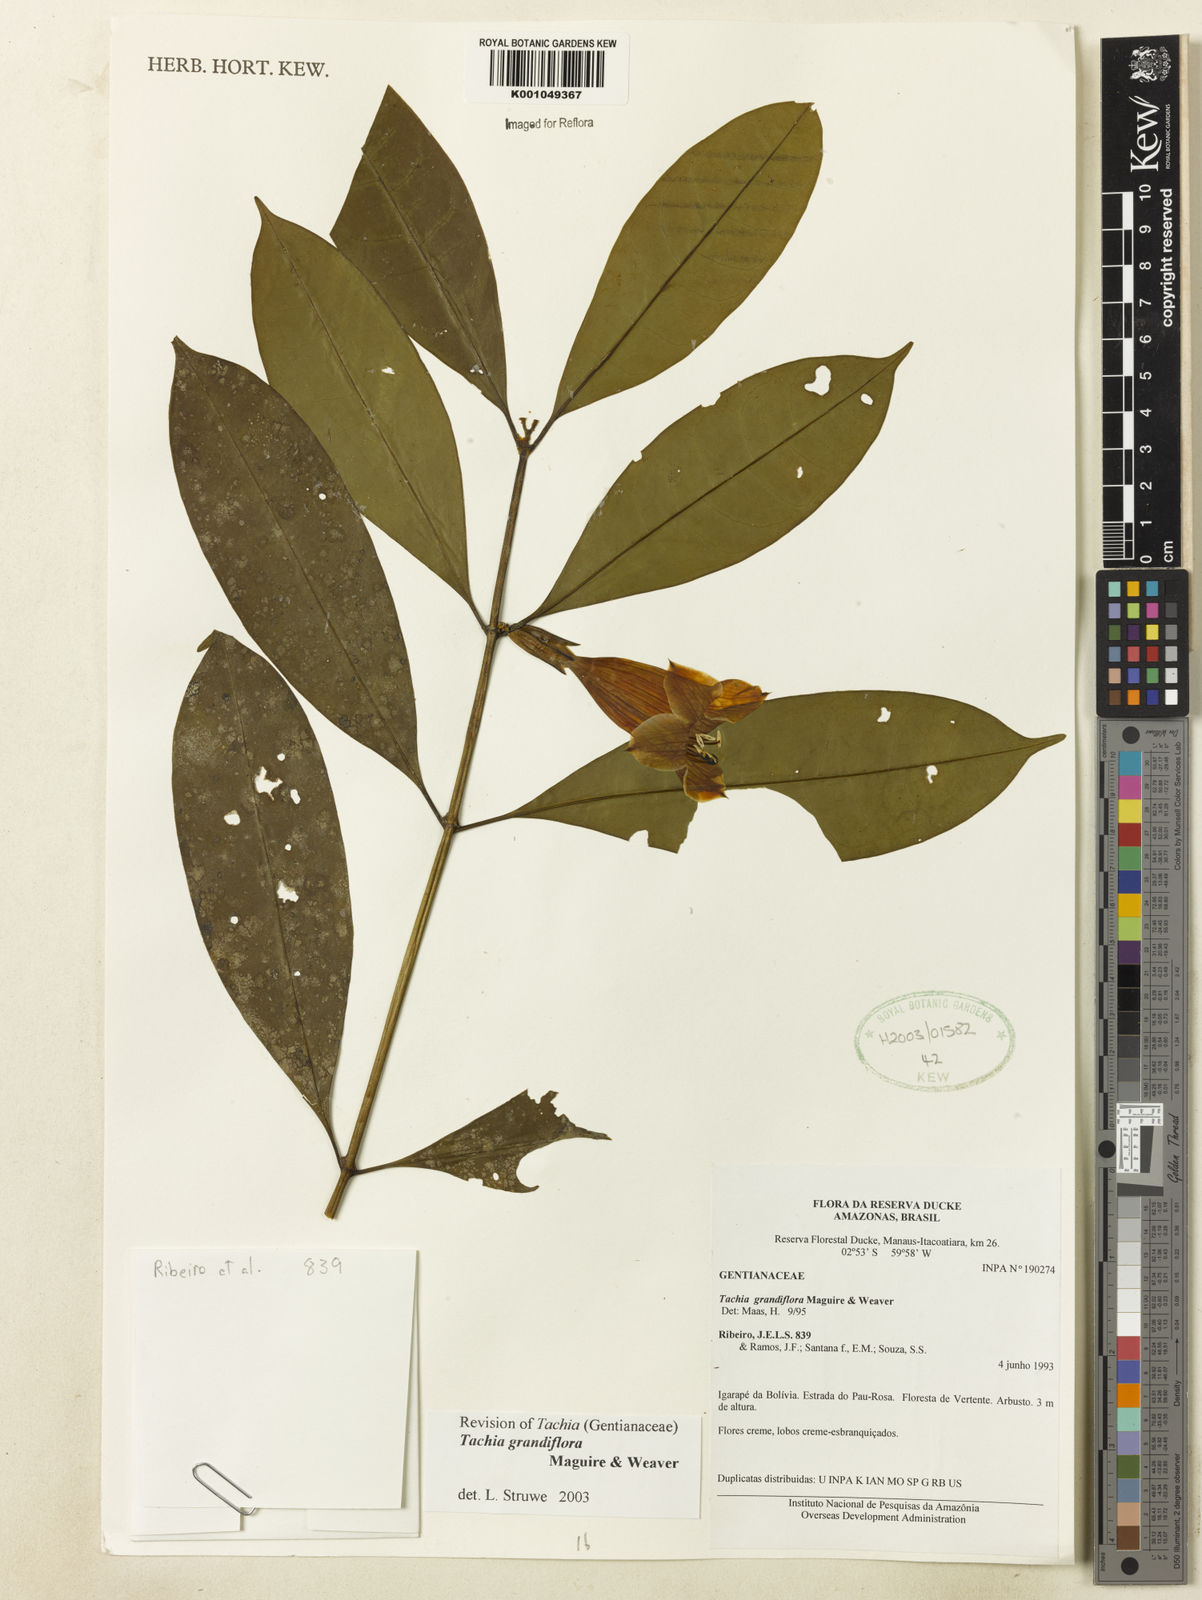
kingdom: Plantae
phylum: Tracheophyta
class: Magnoliopsida
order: Gentianales
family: Gentianaceae
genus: Tachia
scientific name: Tachia grandiflora
